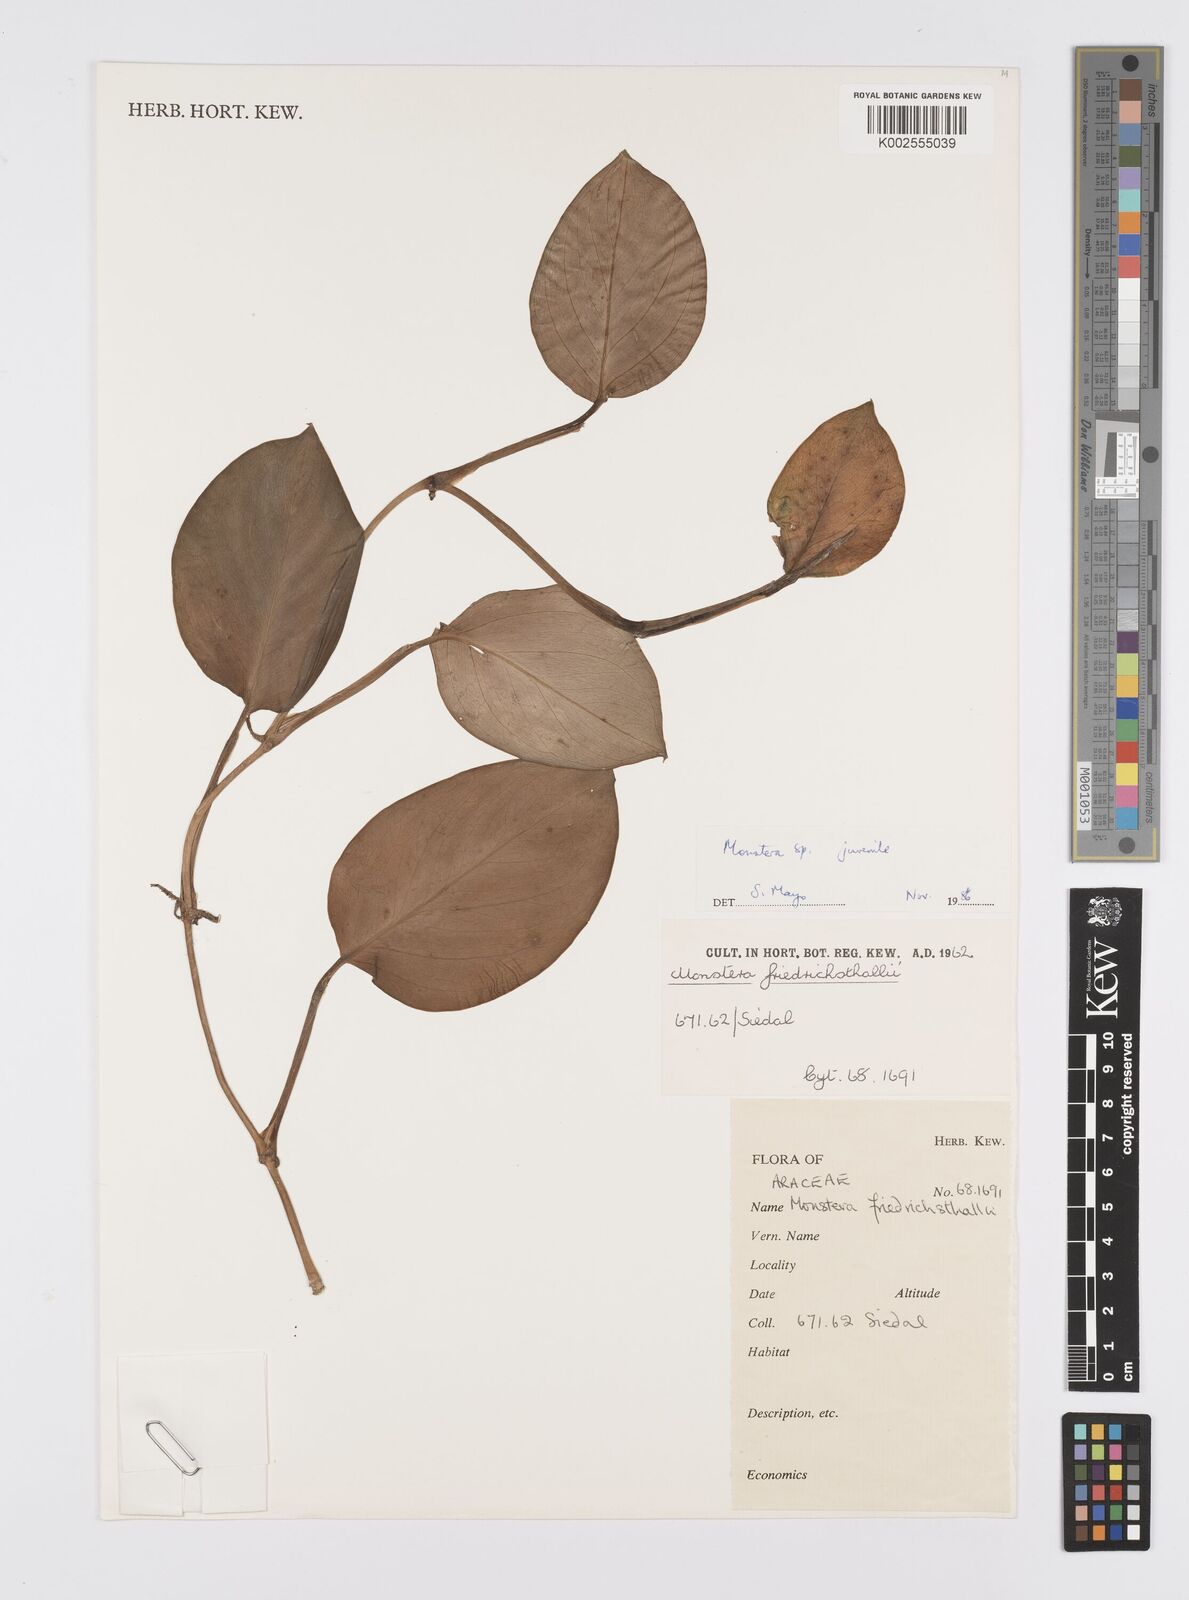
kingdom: Plantae
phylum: Tracheophyta
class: Liliopsida
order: Alismatales
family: Araceae
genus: Monstera
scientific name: Monstera
